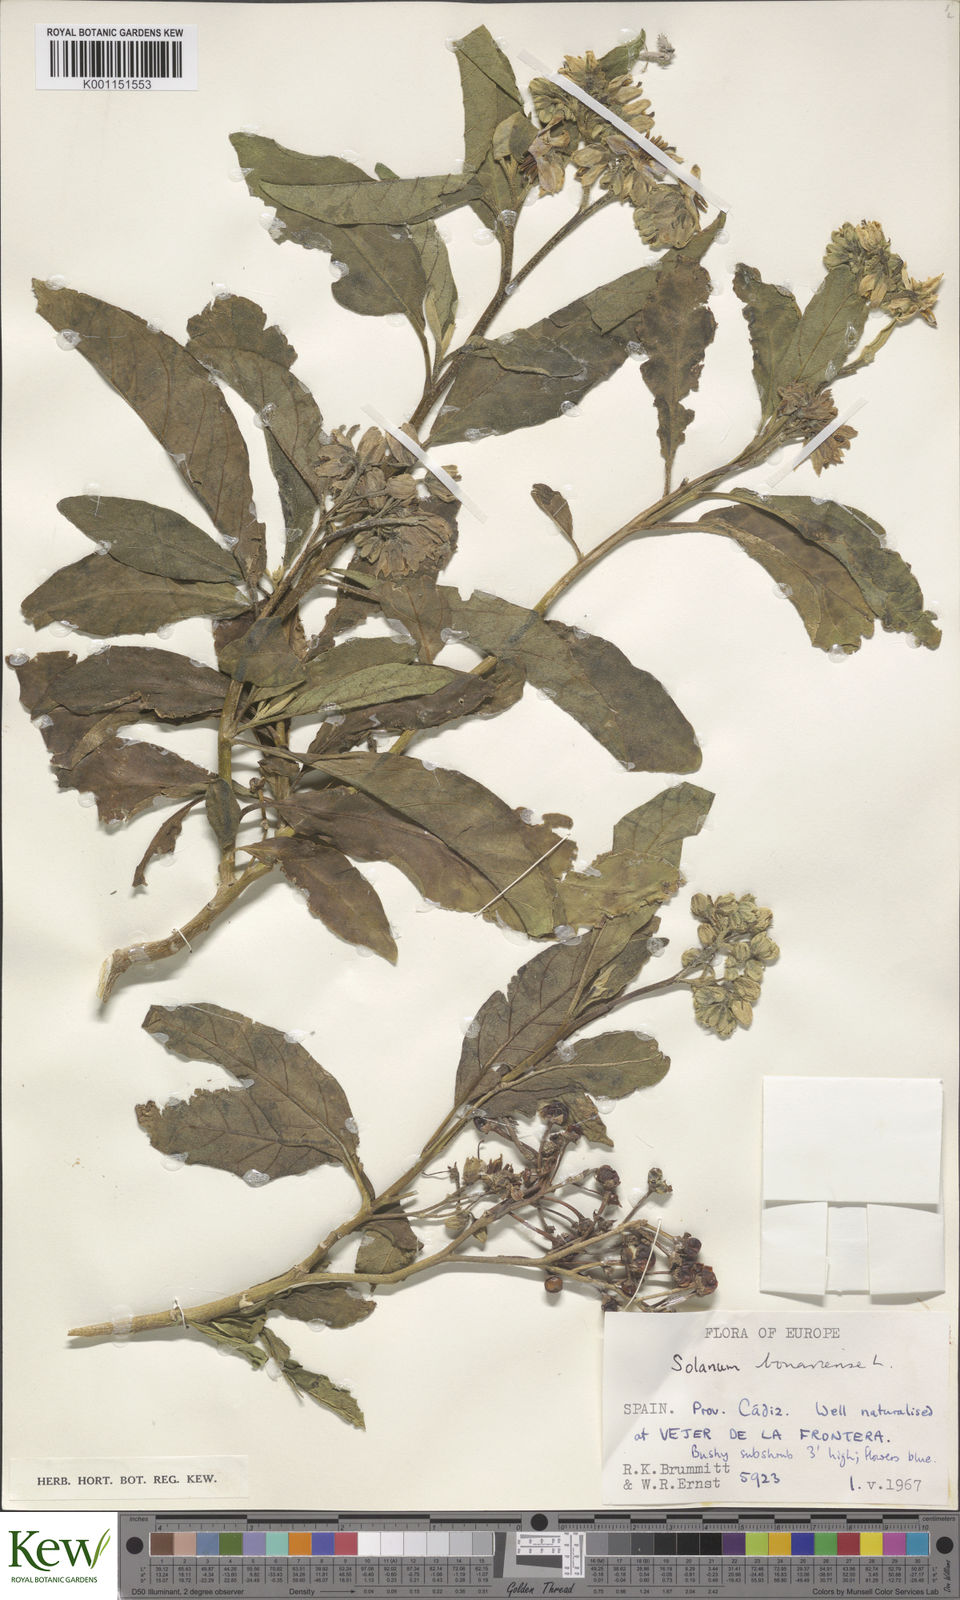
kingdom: Plantae
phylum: Tracheophyta
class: Magnoliopsida
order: Solanales
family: Solanaceae
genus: Solanum
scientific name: Solanum bonariense
